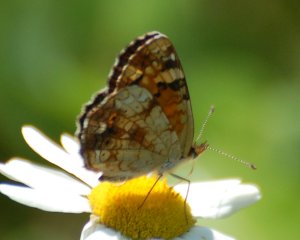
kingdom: Animalia
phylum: Arthropoda
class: Insecta
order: Lepidoptera
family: Nymphalidae
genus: Phyciodes
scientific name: Phyciodes tharos
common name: Northern Crescent
